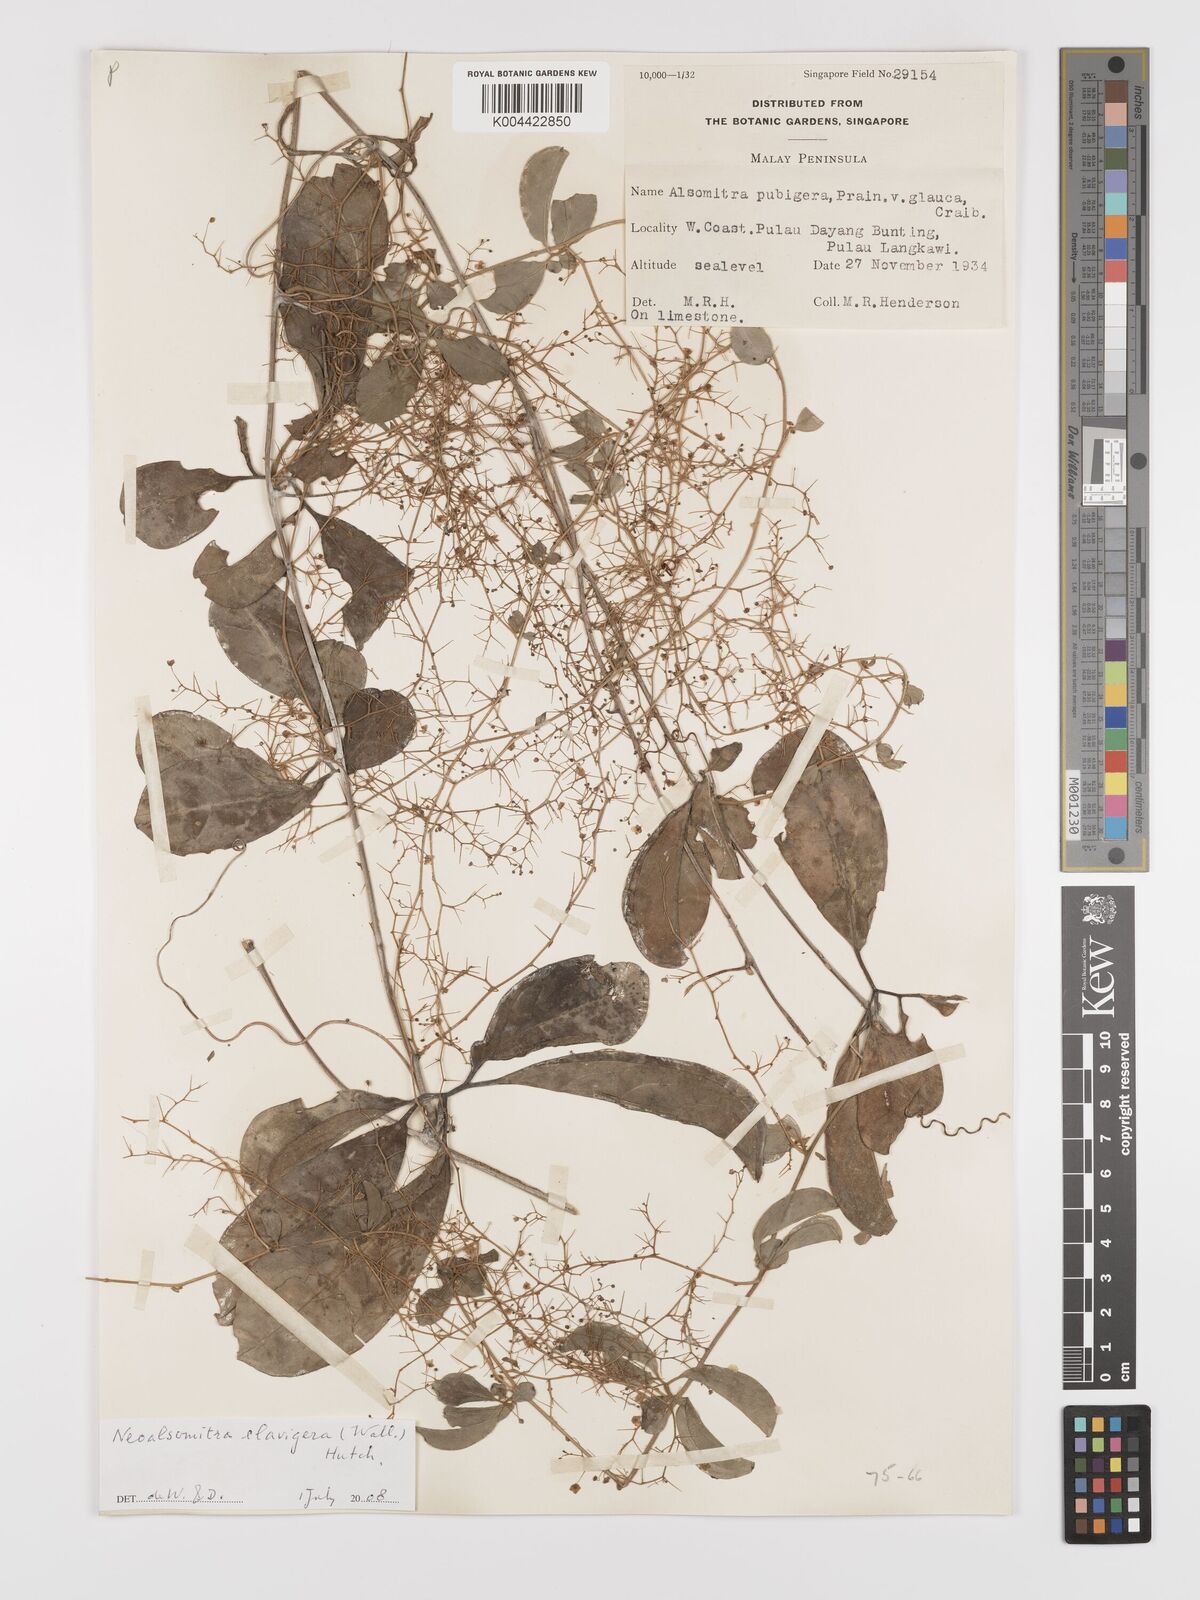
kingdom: Plantae
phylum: Tracheophyta
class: Magnoliopsida
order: Cucurbitales
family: Cucurbitaceae
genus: Neoalsomitra
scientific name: Neoalsomitra clavigera
